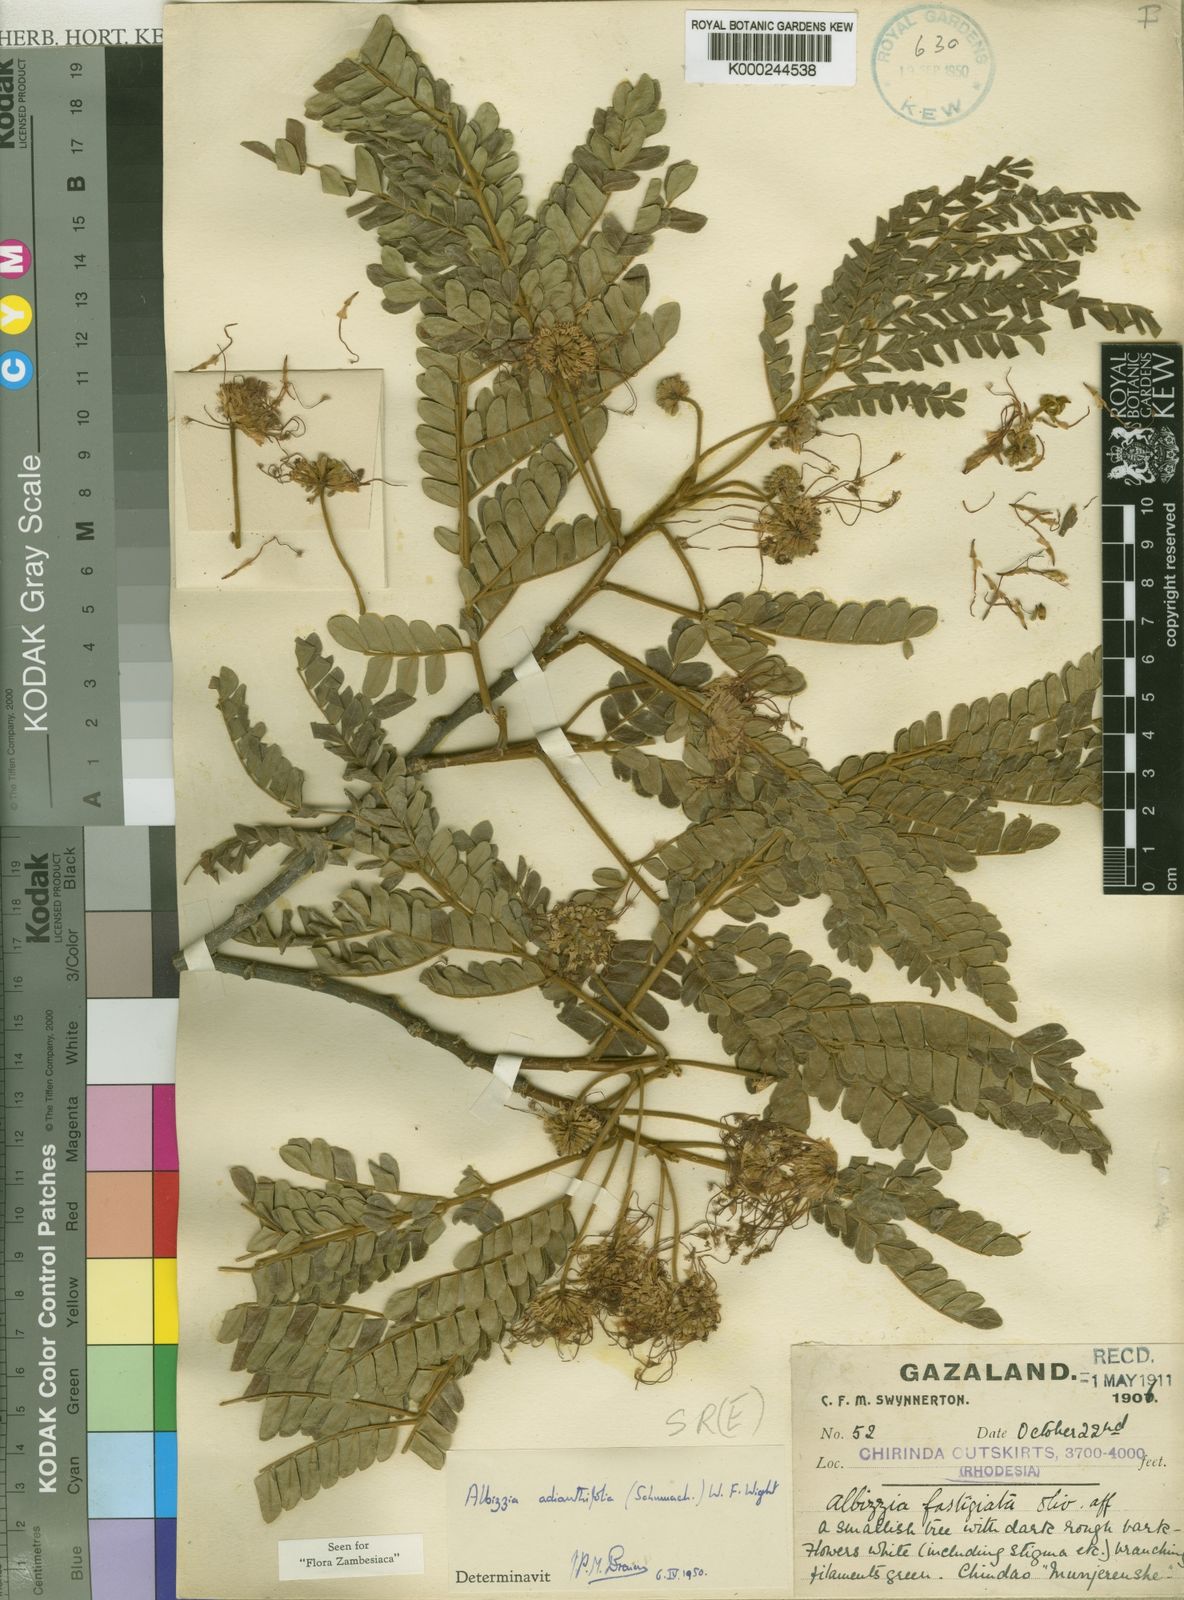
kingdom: Plantae
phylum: Tracheophyta
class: Magnoliopsida
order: Fabales
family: Fabaceae
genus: Albizia
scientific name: Albizia adianthifolia
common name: West african albizia
